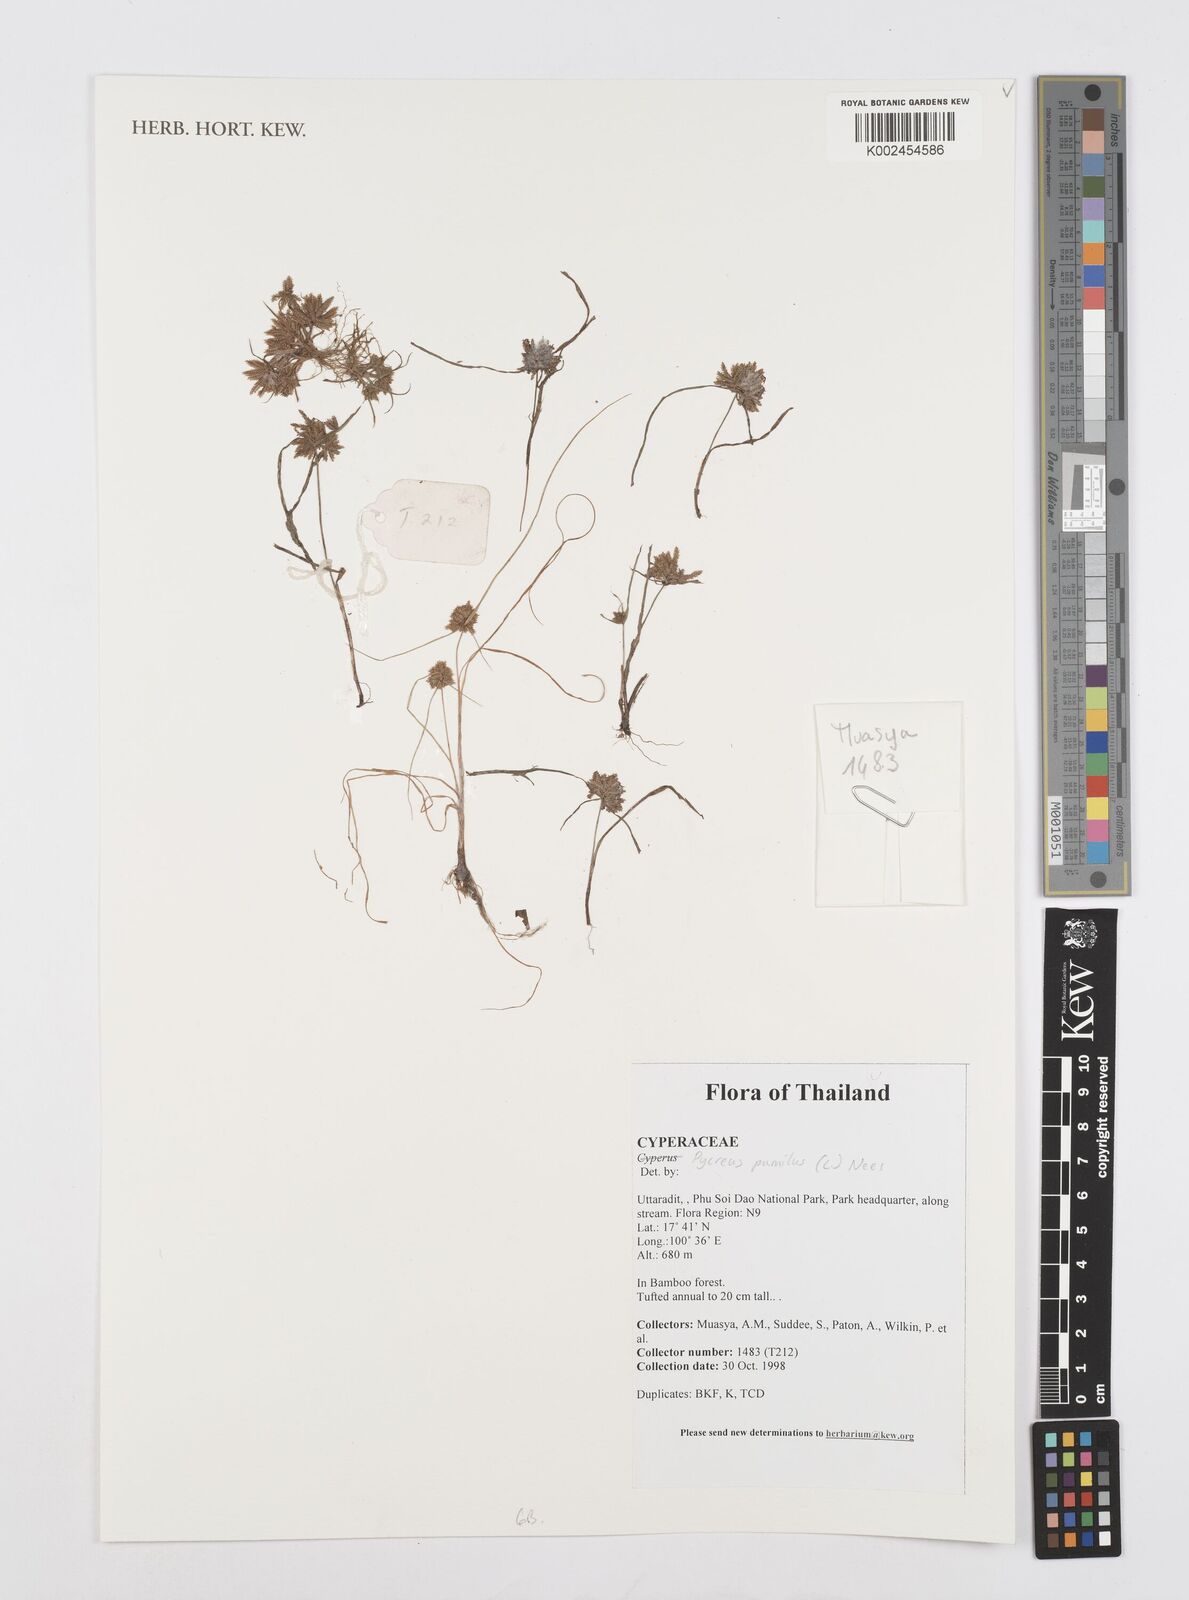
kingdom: Plantae
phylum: Tracheophyta
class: Liliopsida
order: Poales
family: Cyperaceae
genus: Cyperus
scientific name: Cyperus pumilus
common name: Low flatsedge
